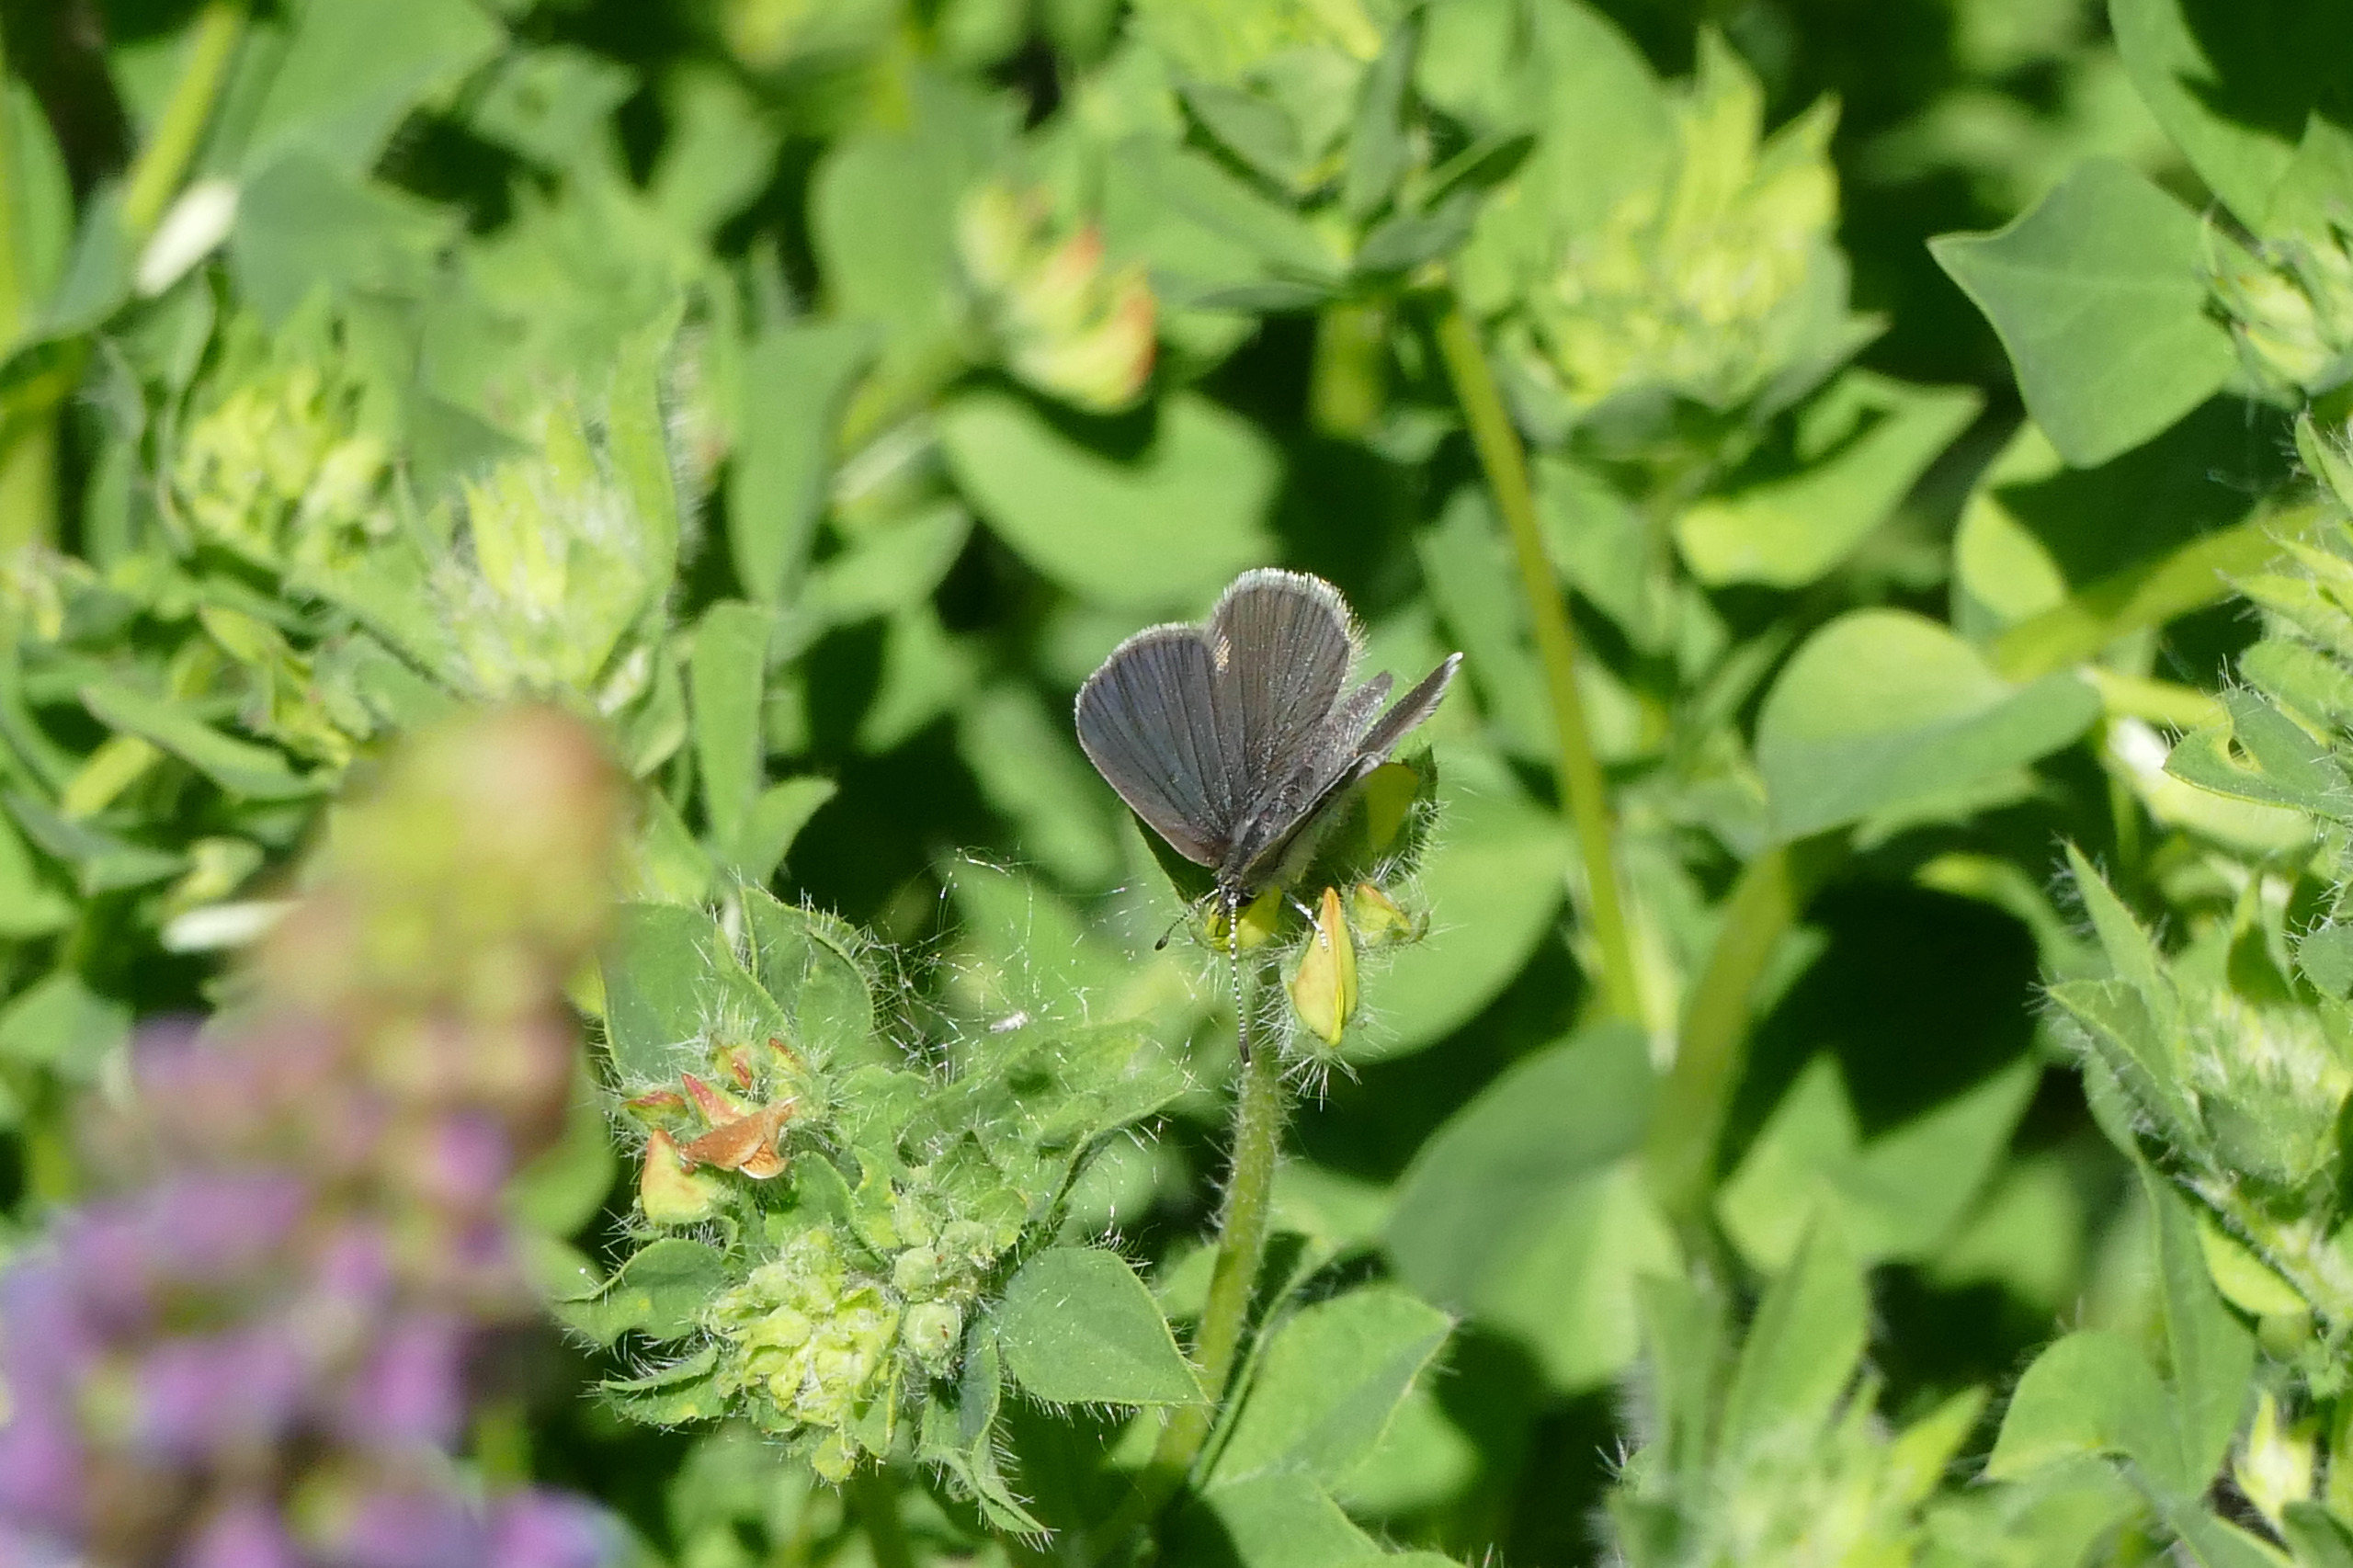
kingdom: Animalia
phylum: Arthropoda
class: Insecta
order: Lepidoptera
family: Lycaenidae
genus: Cupido
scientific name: Cupido minimus
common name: Dværgblåfugl
